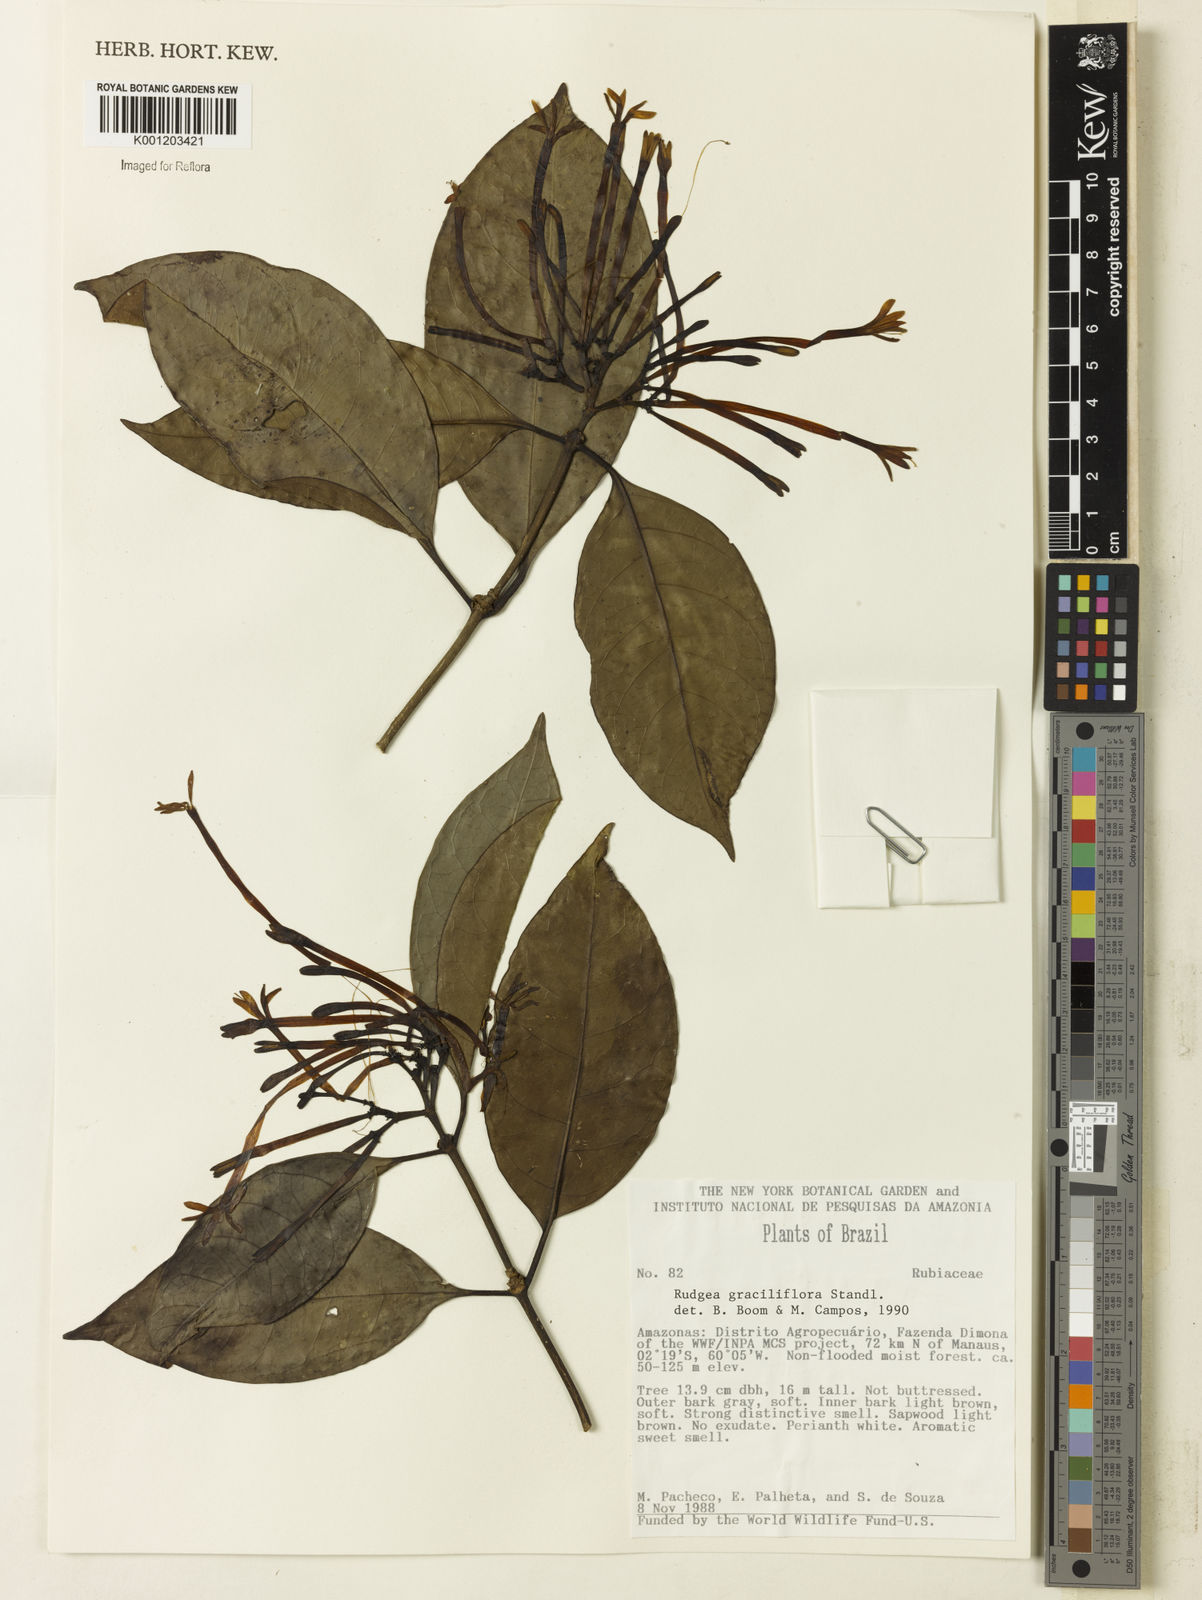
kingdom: Plantae
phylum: Tracheophyta
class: Magnoliopsida
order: Gentianales
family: Rubiaceae
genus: Rudgea
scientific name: Rudgea graciliflora
